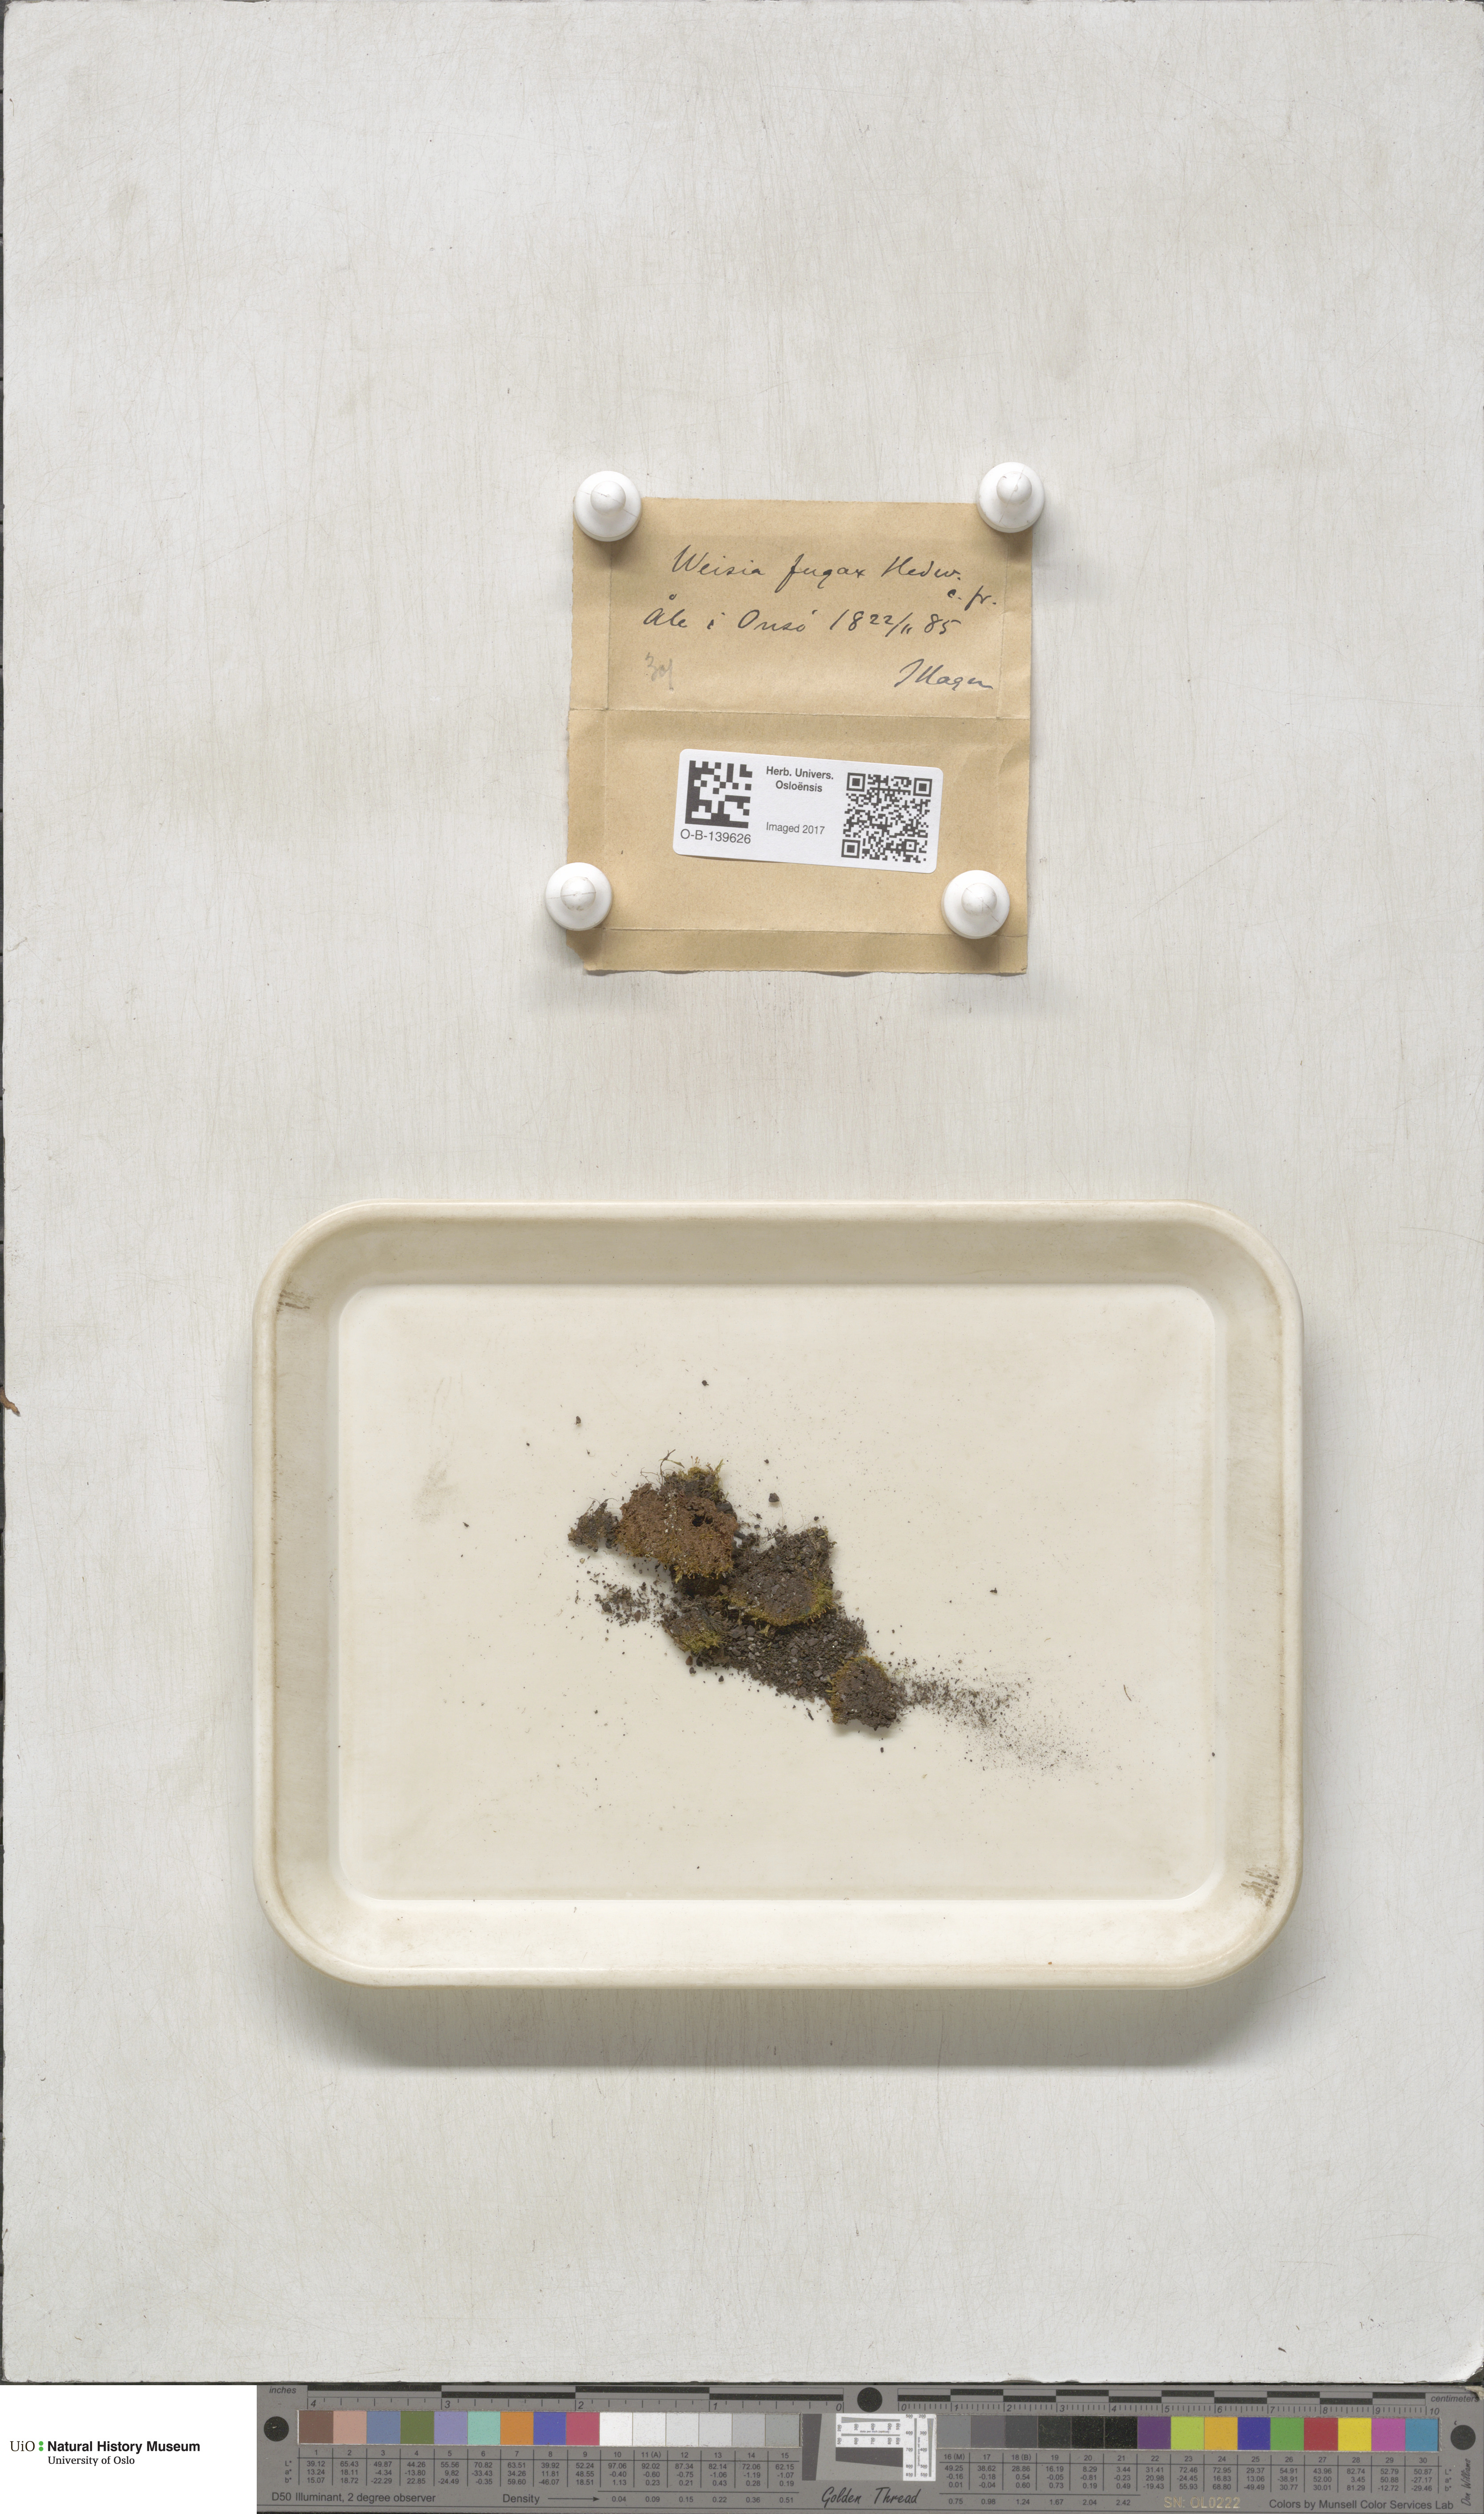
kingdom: Plantae
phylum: Bryophyta
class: Bryopsida
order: Dicranales
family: Rhabdoweisiaceae
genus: Rhabdoweisia
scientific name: Rhabdoweisia crispata
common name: Fine-toothed streak moss
